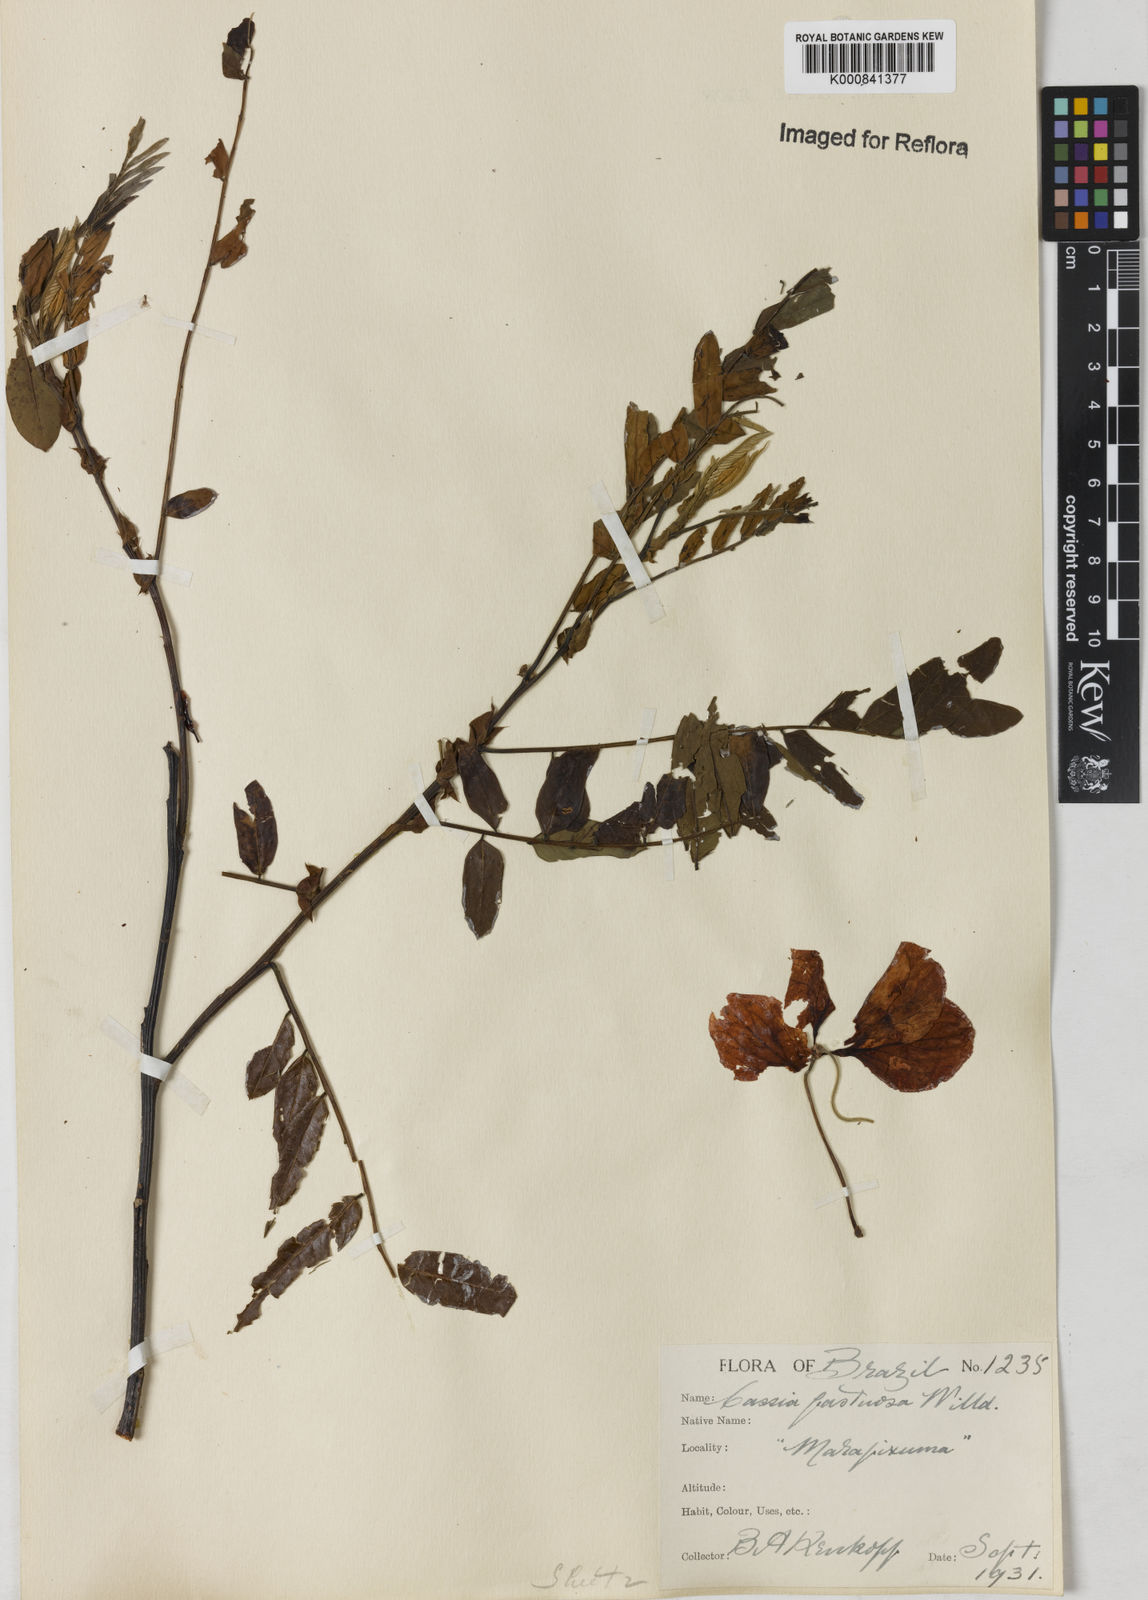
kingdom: Plantae
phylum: Tracheophyta
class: Magnoliopsida
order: Fabales
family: Fabaceae
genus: Cassia
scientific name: Cassia
